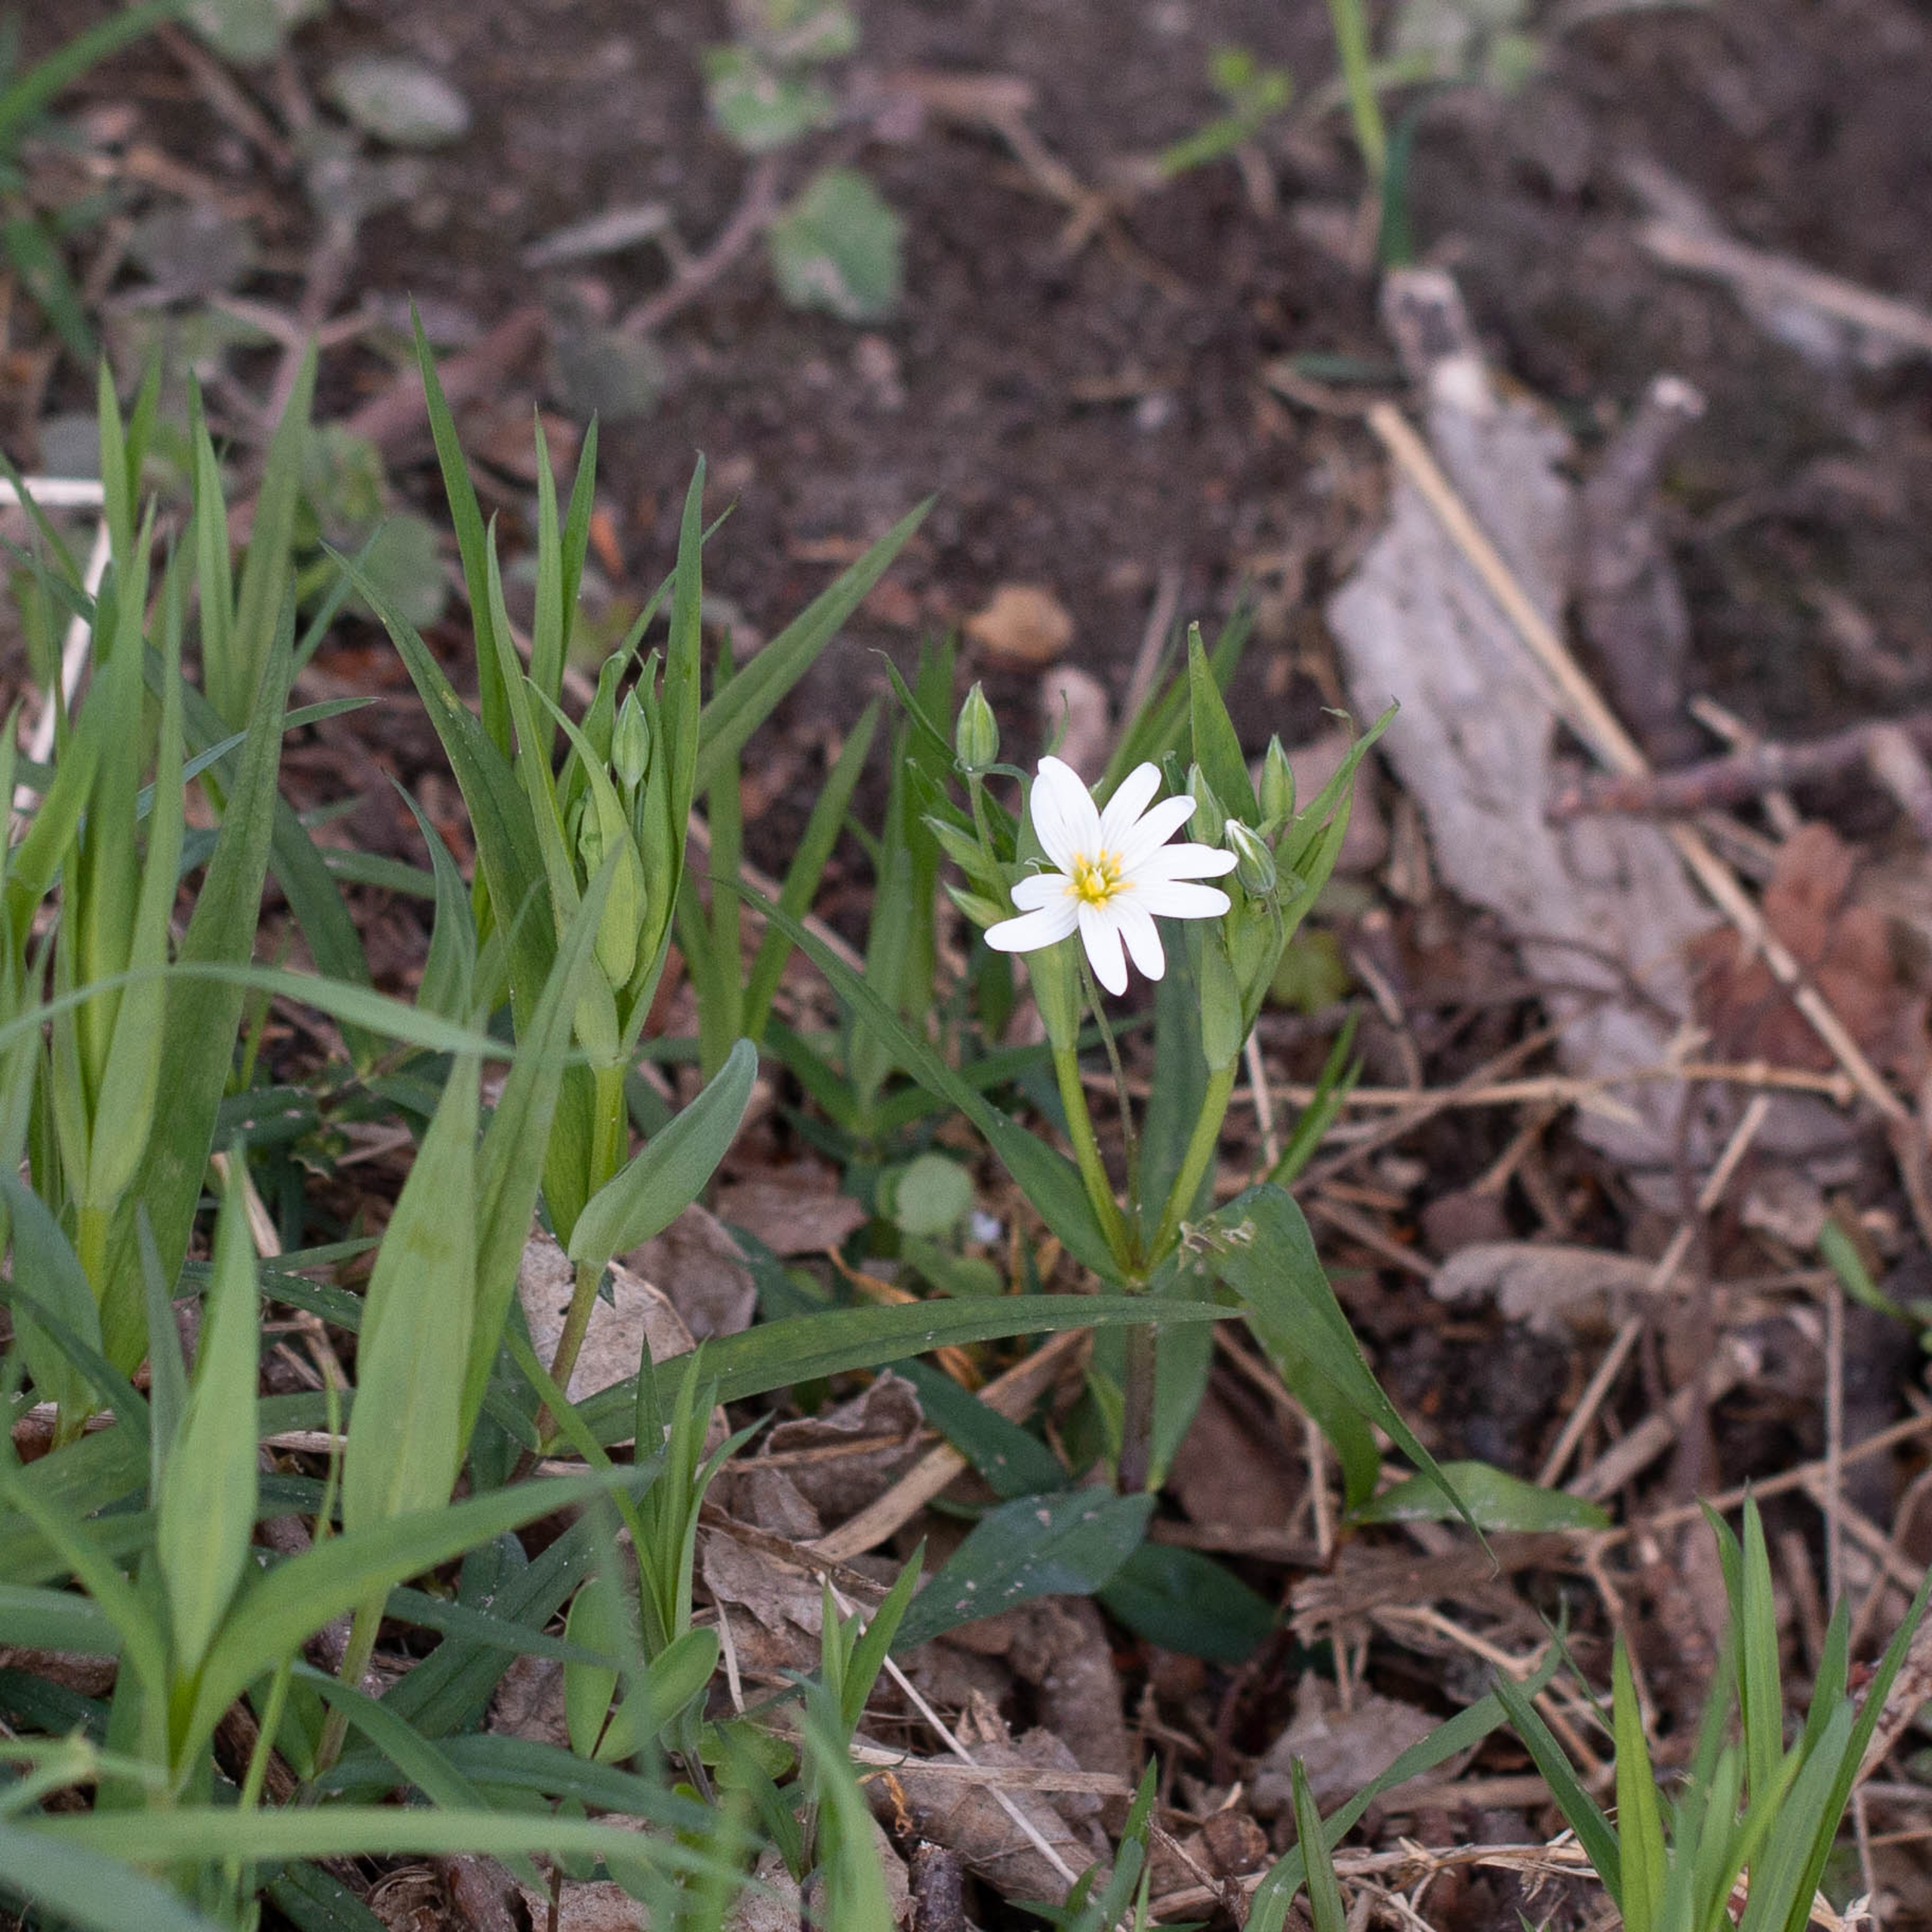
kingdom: Plantae
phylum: Tracheophyta
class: Magnoliopsida
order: Caryophyllales
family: Caryophyllaceae
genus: Rabelera
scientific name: Rabelera holostea
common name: Stor fladstjerne
